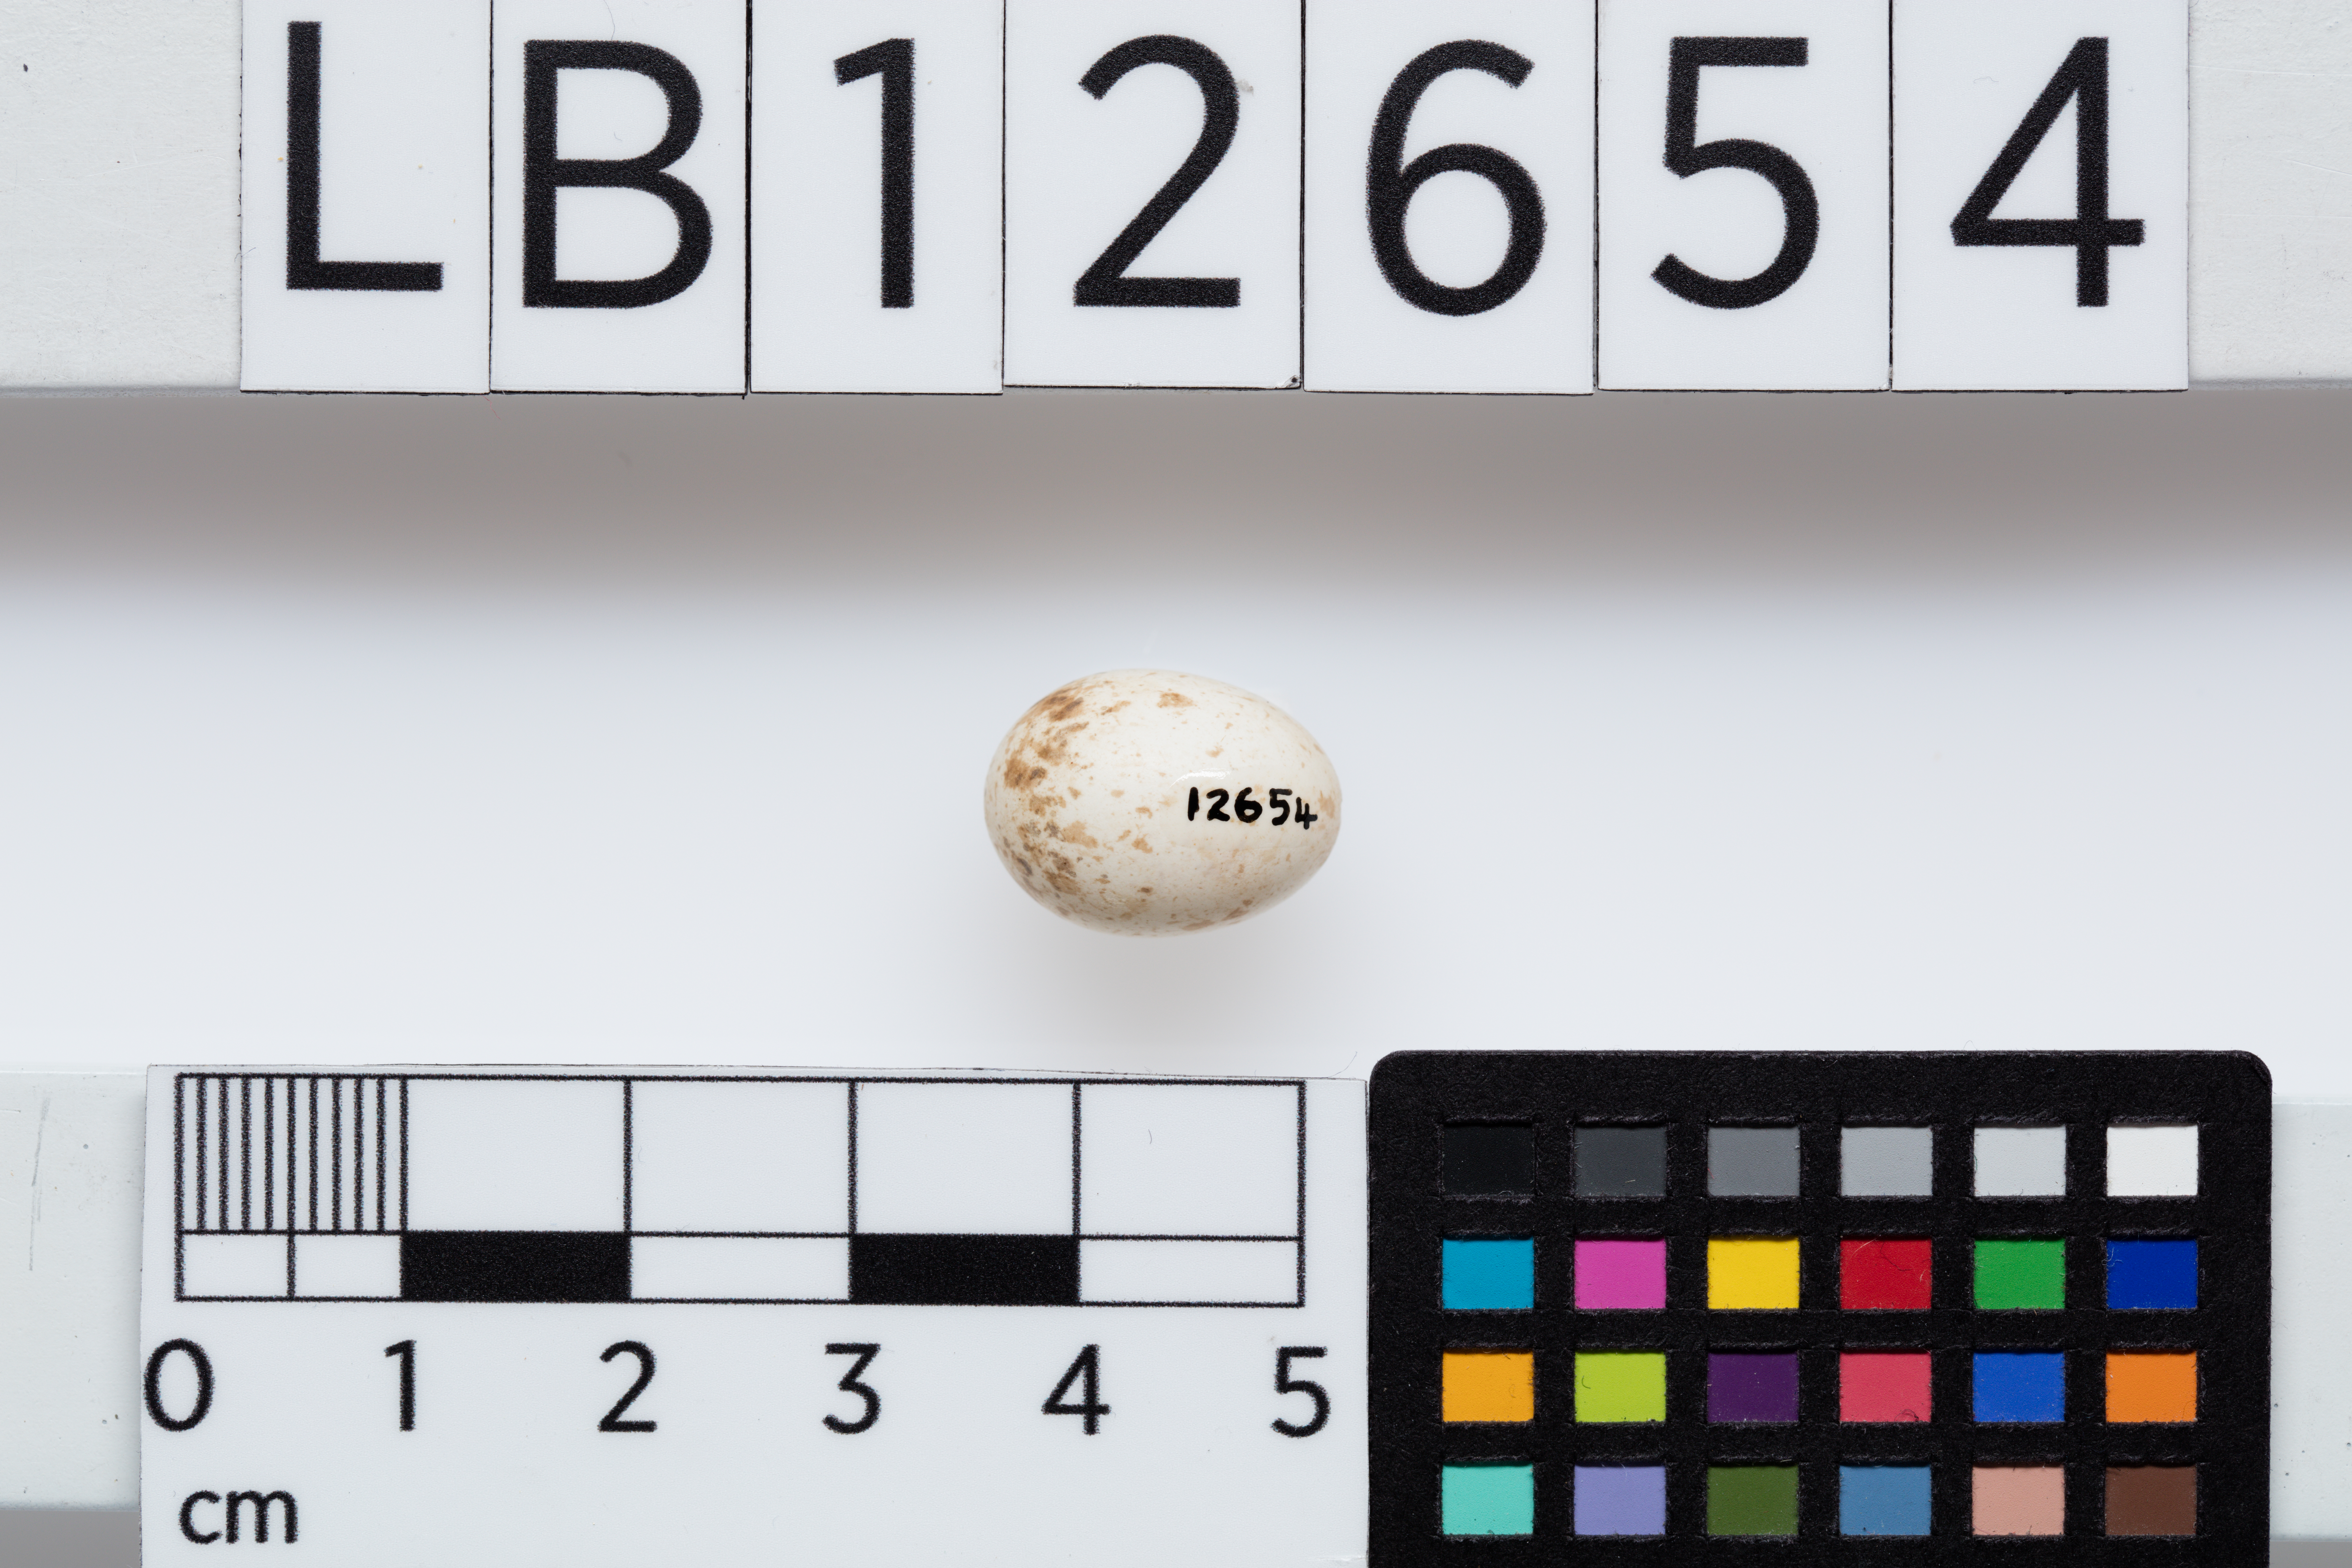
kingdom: Animalia
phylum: Chordata
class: Aves
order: Passeriformes
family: Rhipiduridae
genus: Rhipidura
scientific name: Rhipidura albiscapa
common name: Grey fantail
